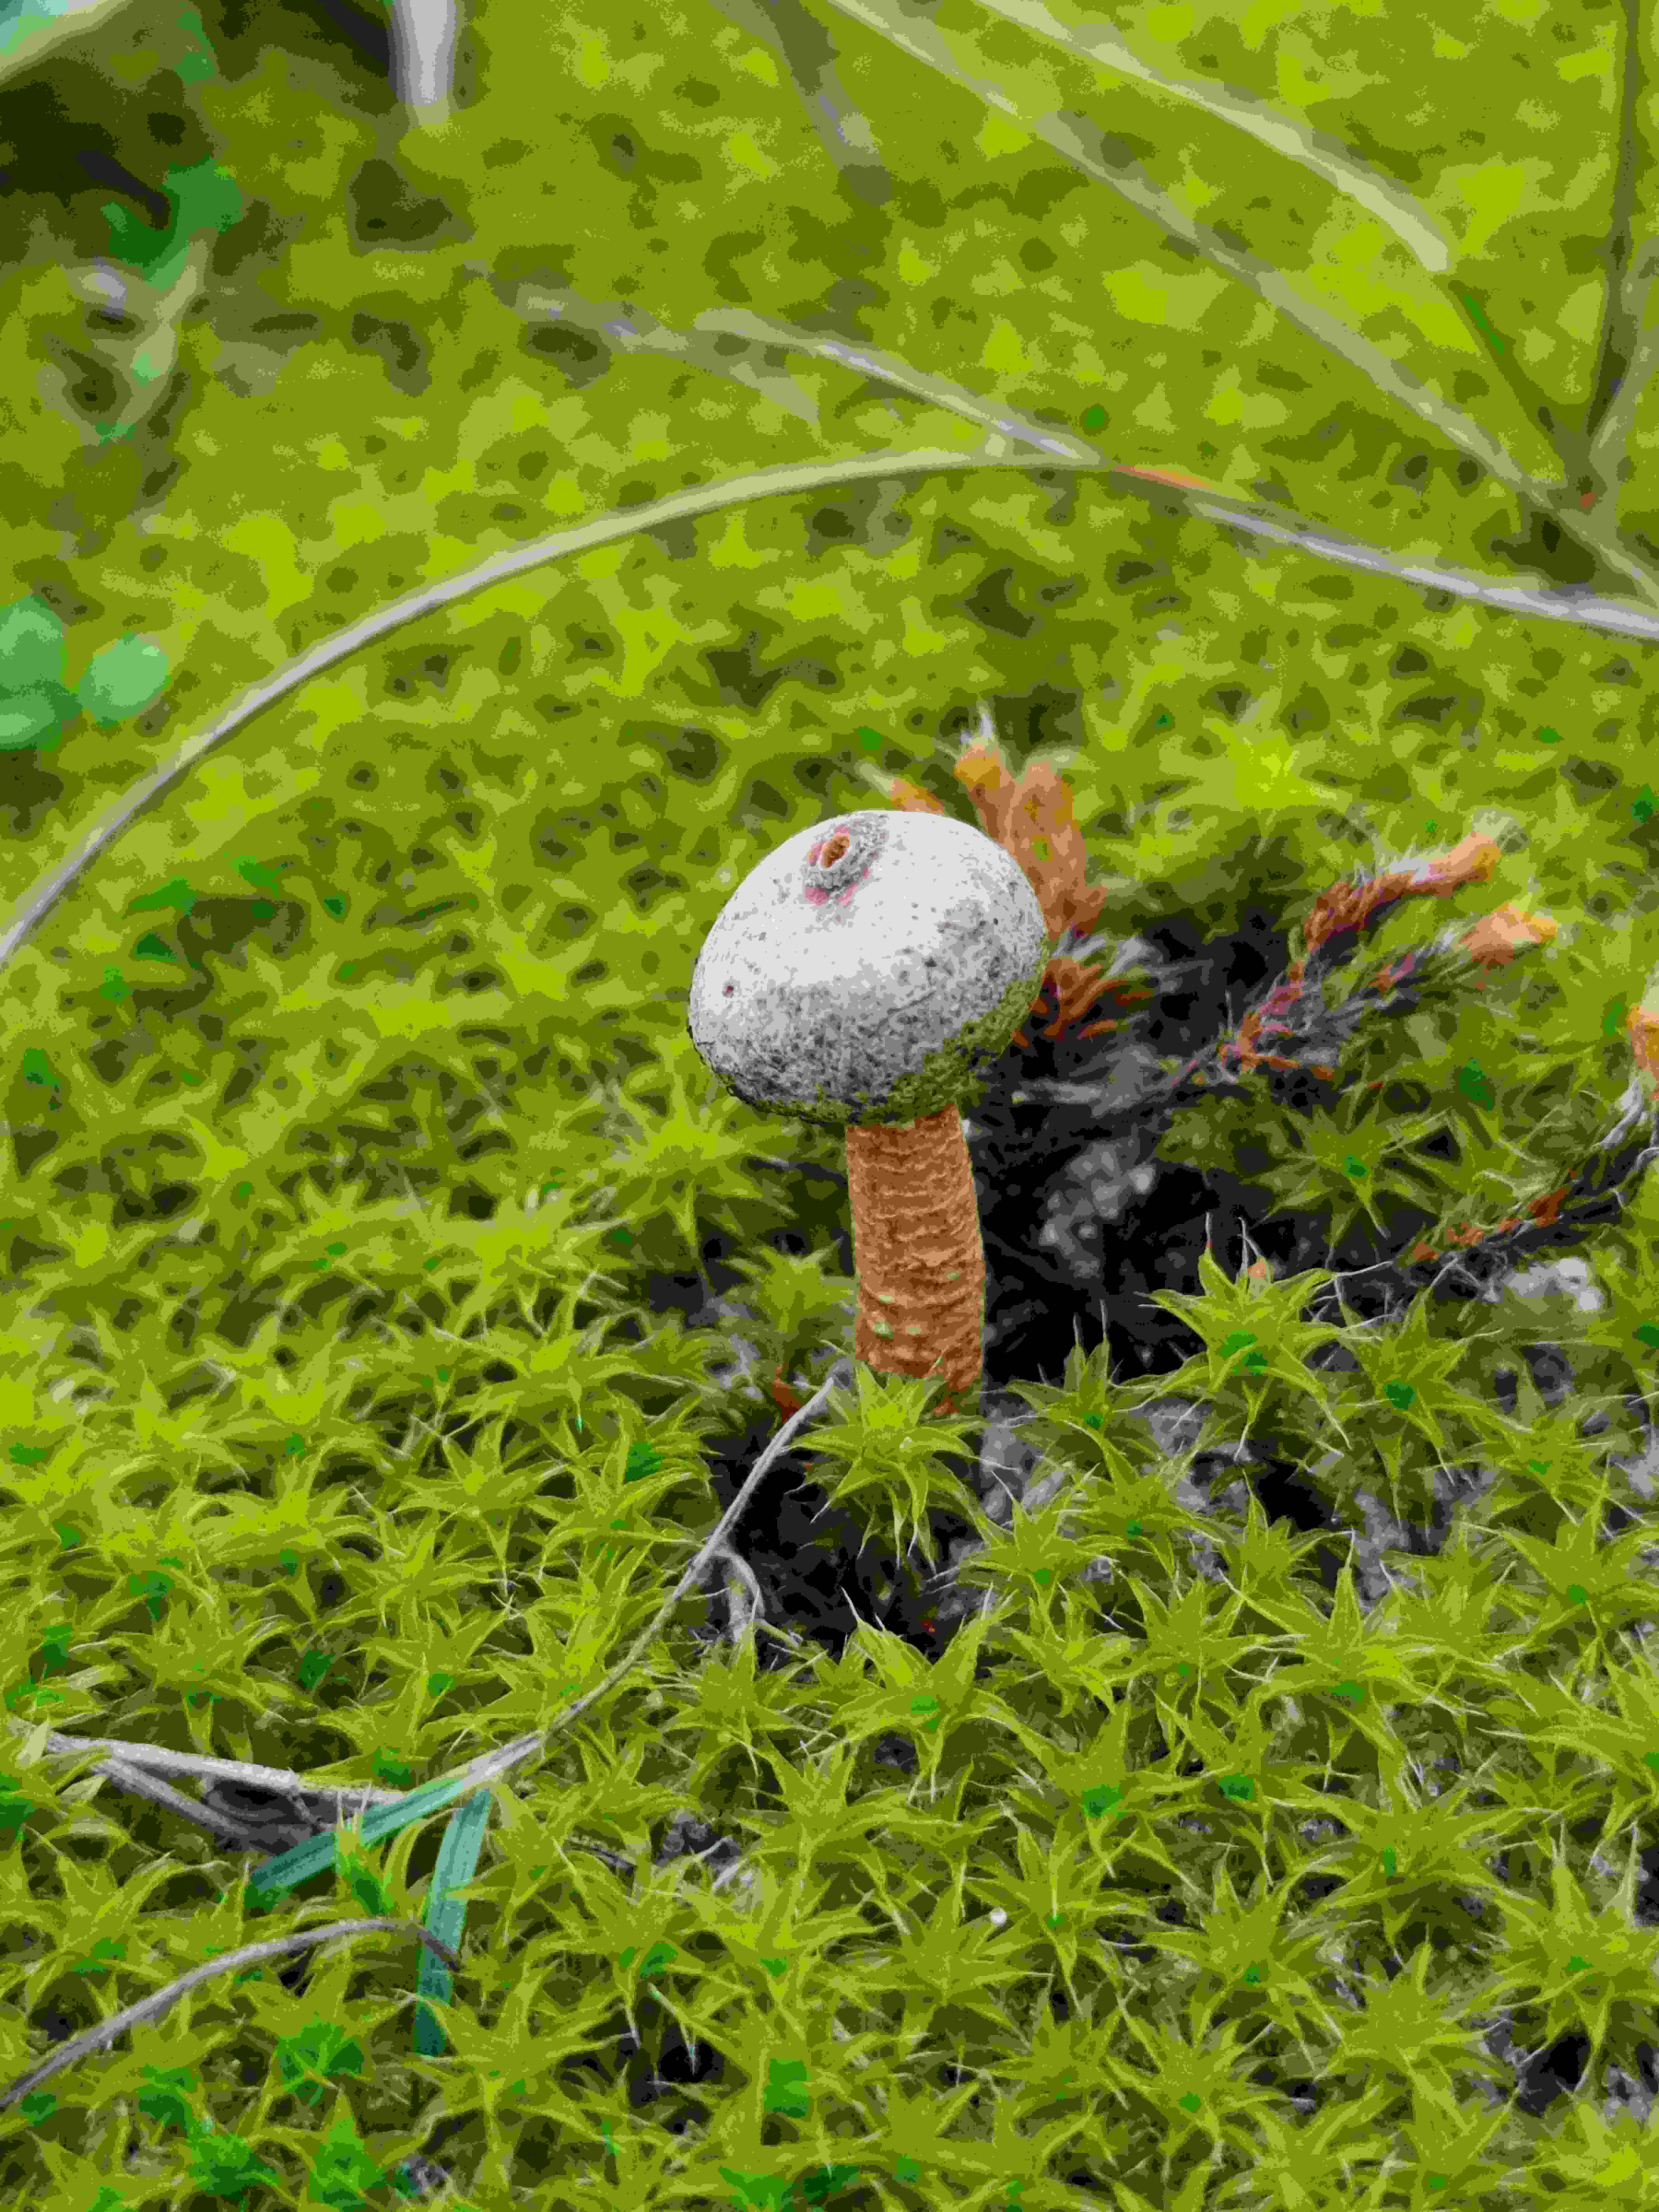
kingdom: Fungi
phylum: Basidiomycota
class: Agaricomycetes
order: Agaricales
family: Agaricaceae
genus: Tulostoma
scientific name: Tulostoma brumale
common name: vinter-stilkbovist
